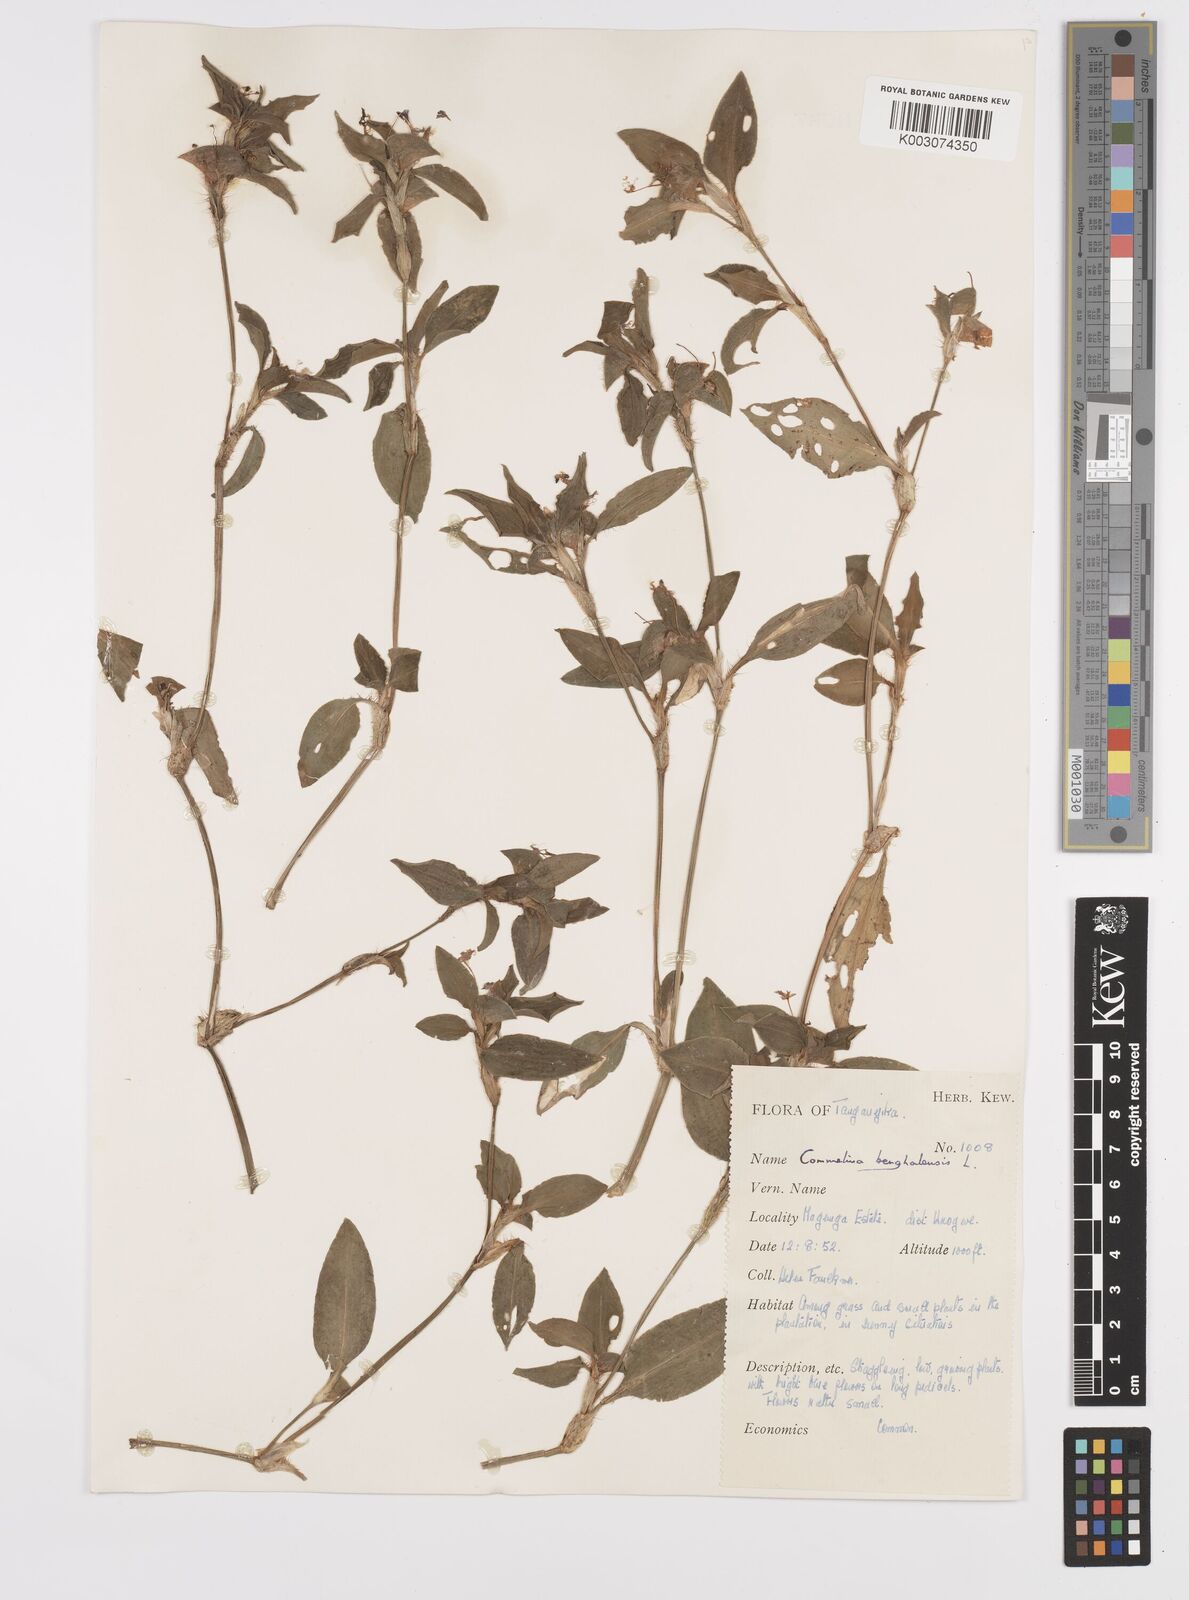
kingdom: Plantae
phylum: Tracheophyta
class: Liliopsida
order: Commelinales
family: Commelinaceae
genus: Commelina
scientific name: Commelina benghalensis
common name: Jio
